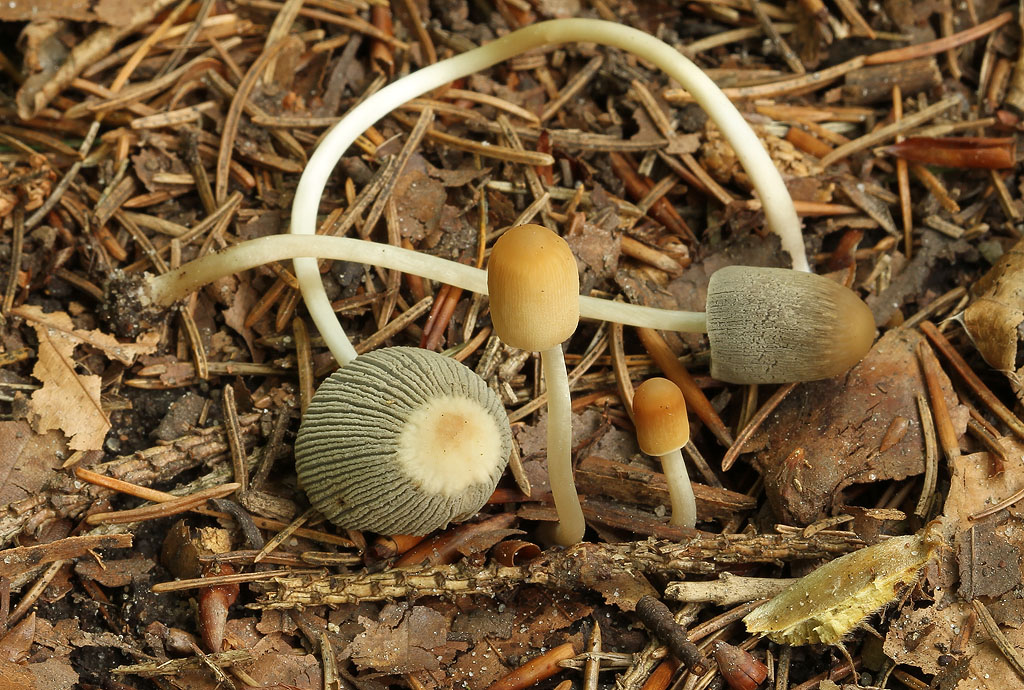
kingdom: Fungi
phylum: Basidiomycota
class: Agaricomycetes
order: Agaricales
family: Psathyrellaceae
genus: Parasola
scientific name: Parasola lactea
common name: glat hjulhat
